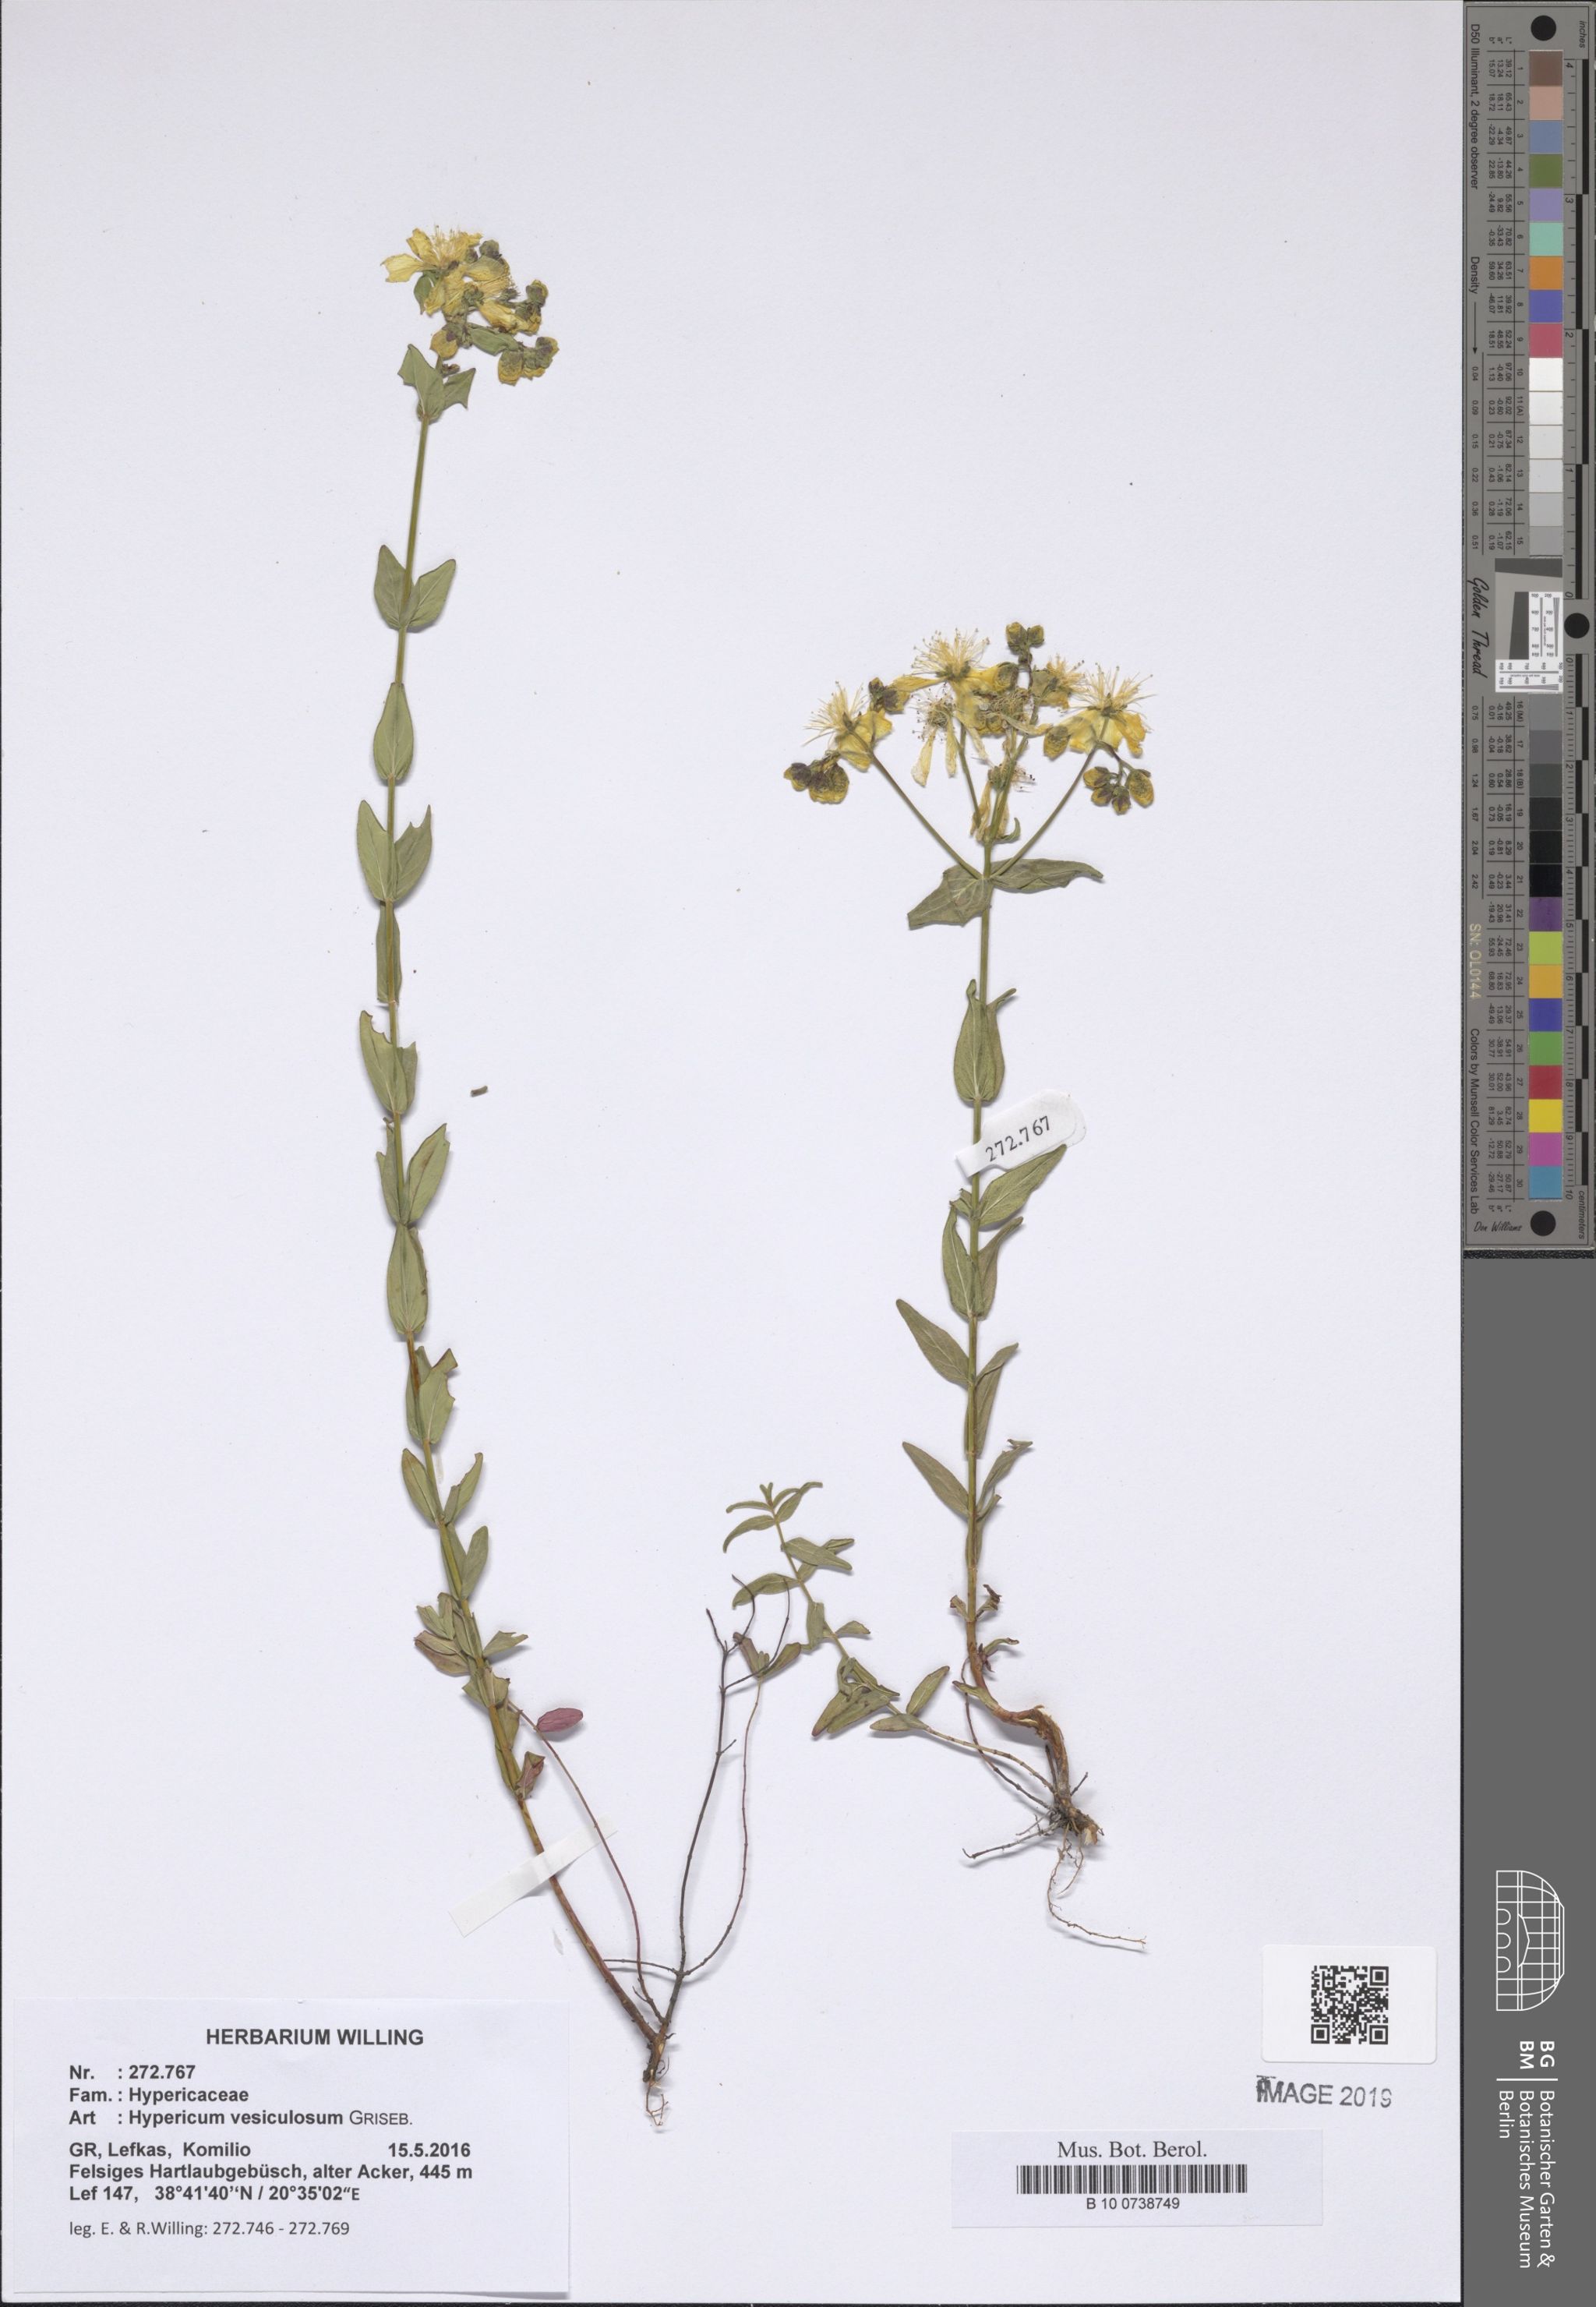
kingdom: Plantae
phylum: Tracheophyta
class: Magnoliopsida
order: Malpighiales
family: Hypericaceae
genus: Hypericum
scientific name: Hypericum vesiculosum
